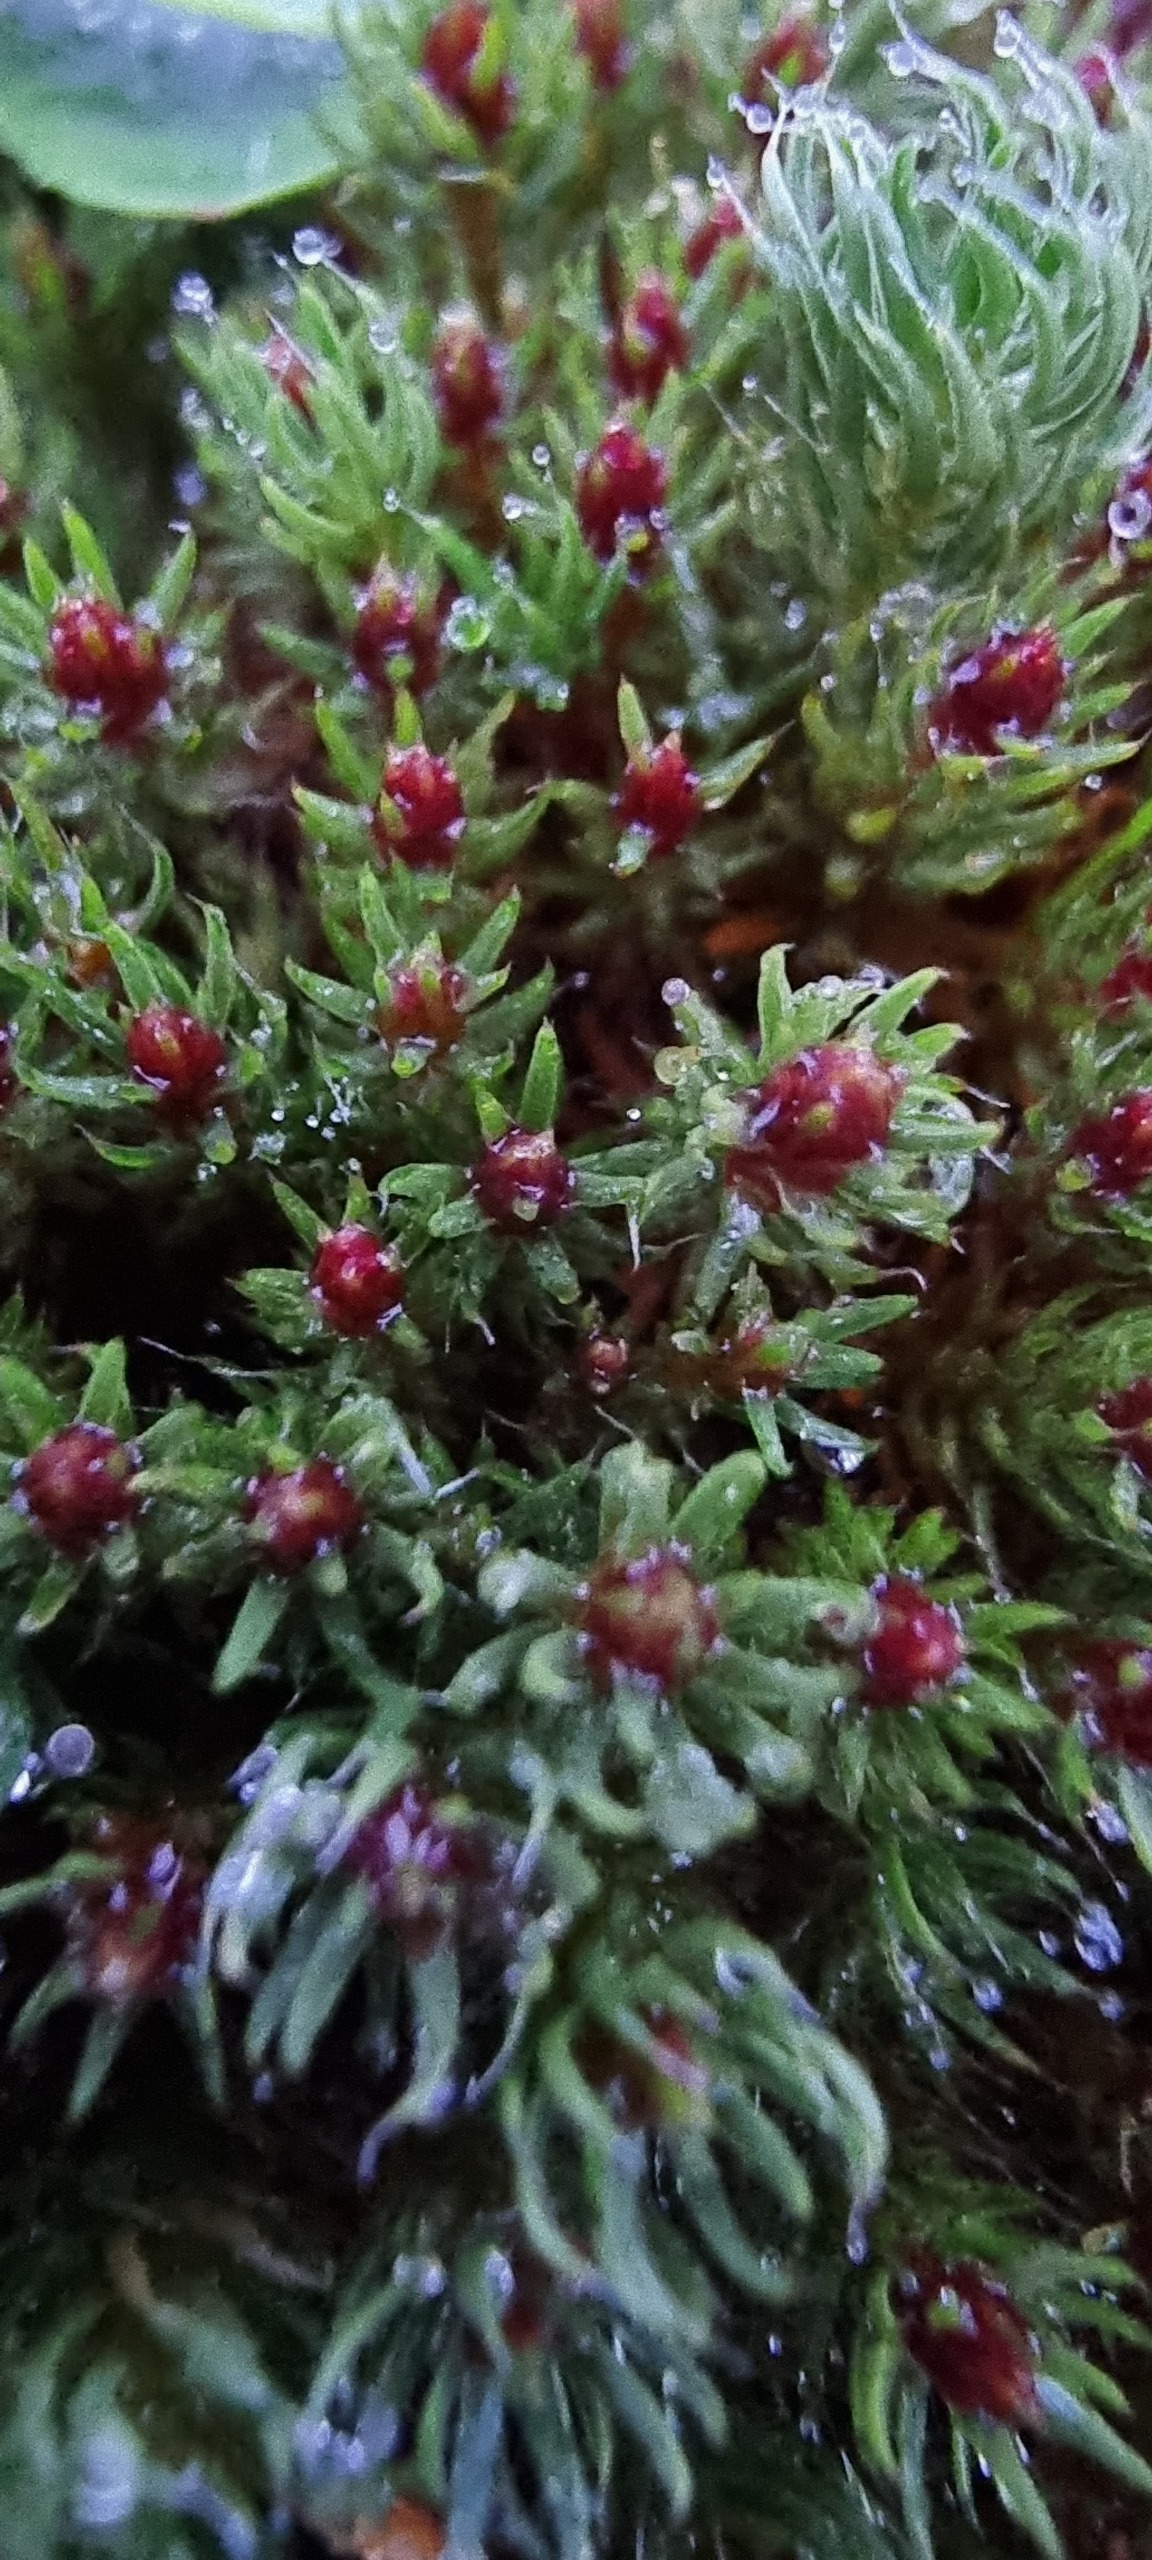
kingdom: Plantae
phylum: Bryophyta
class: Polytrichopsida
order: Polytrichales
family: Polytrichaceae
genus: Polytrichum
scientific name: Polytrichum piliferum
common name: Hårspidset jomfruhår
